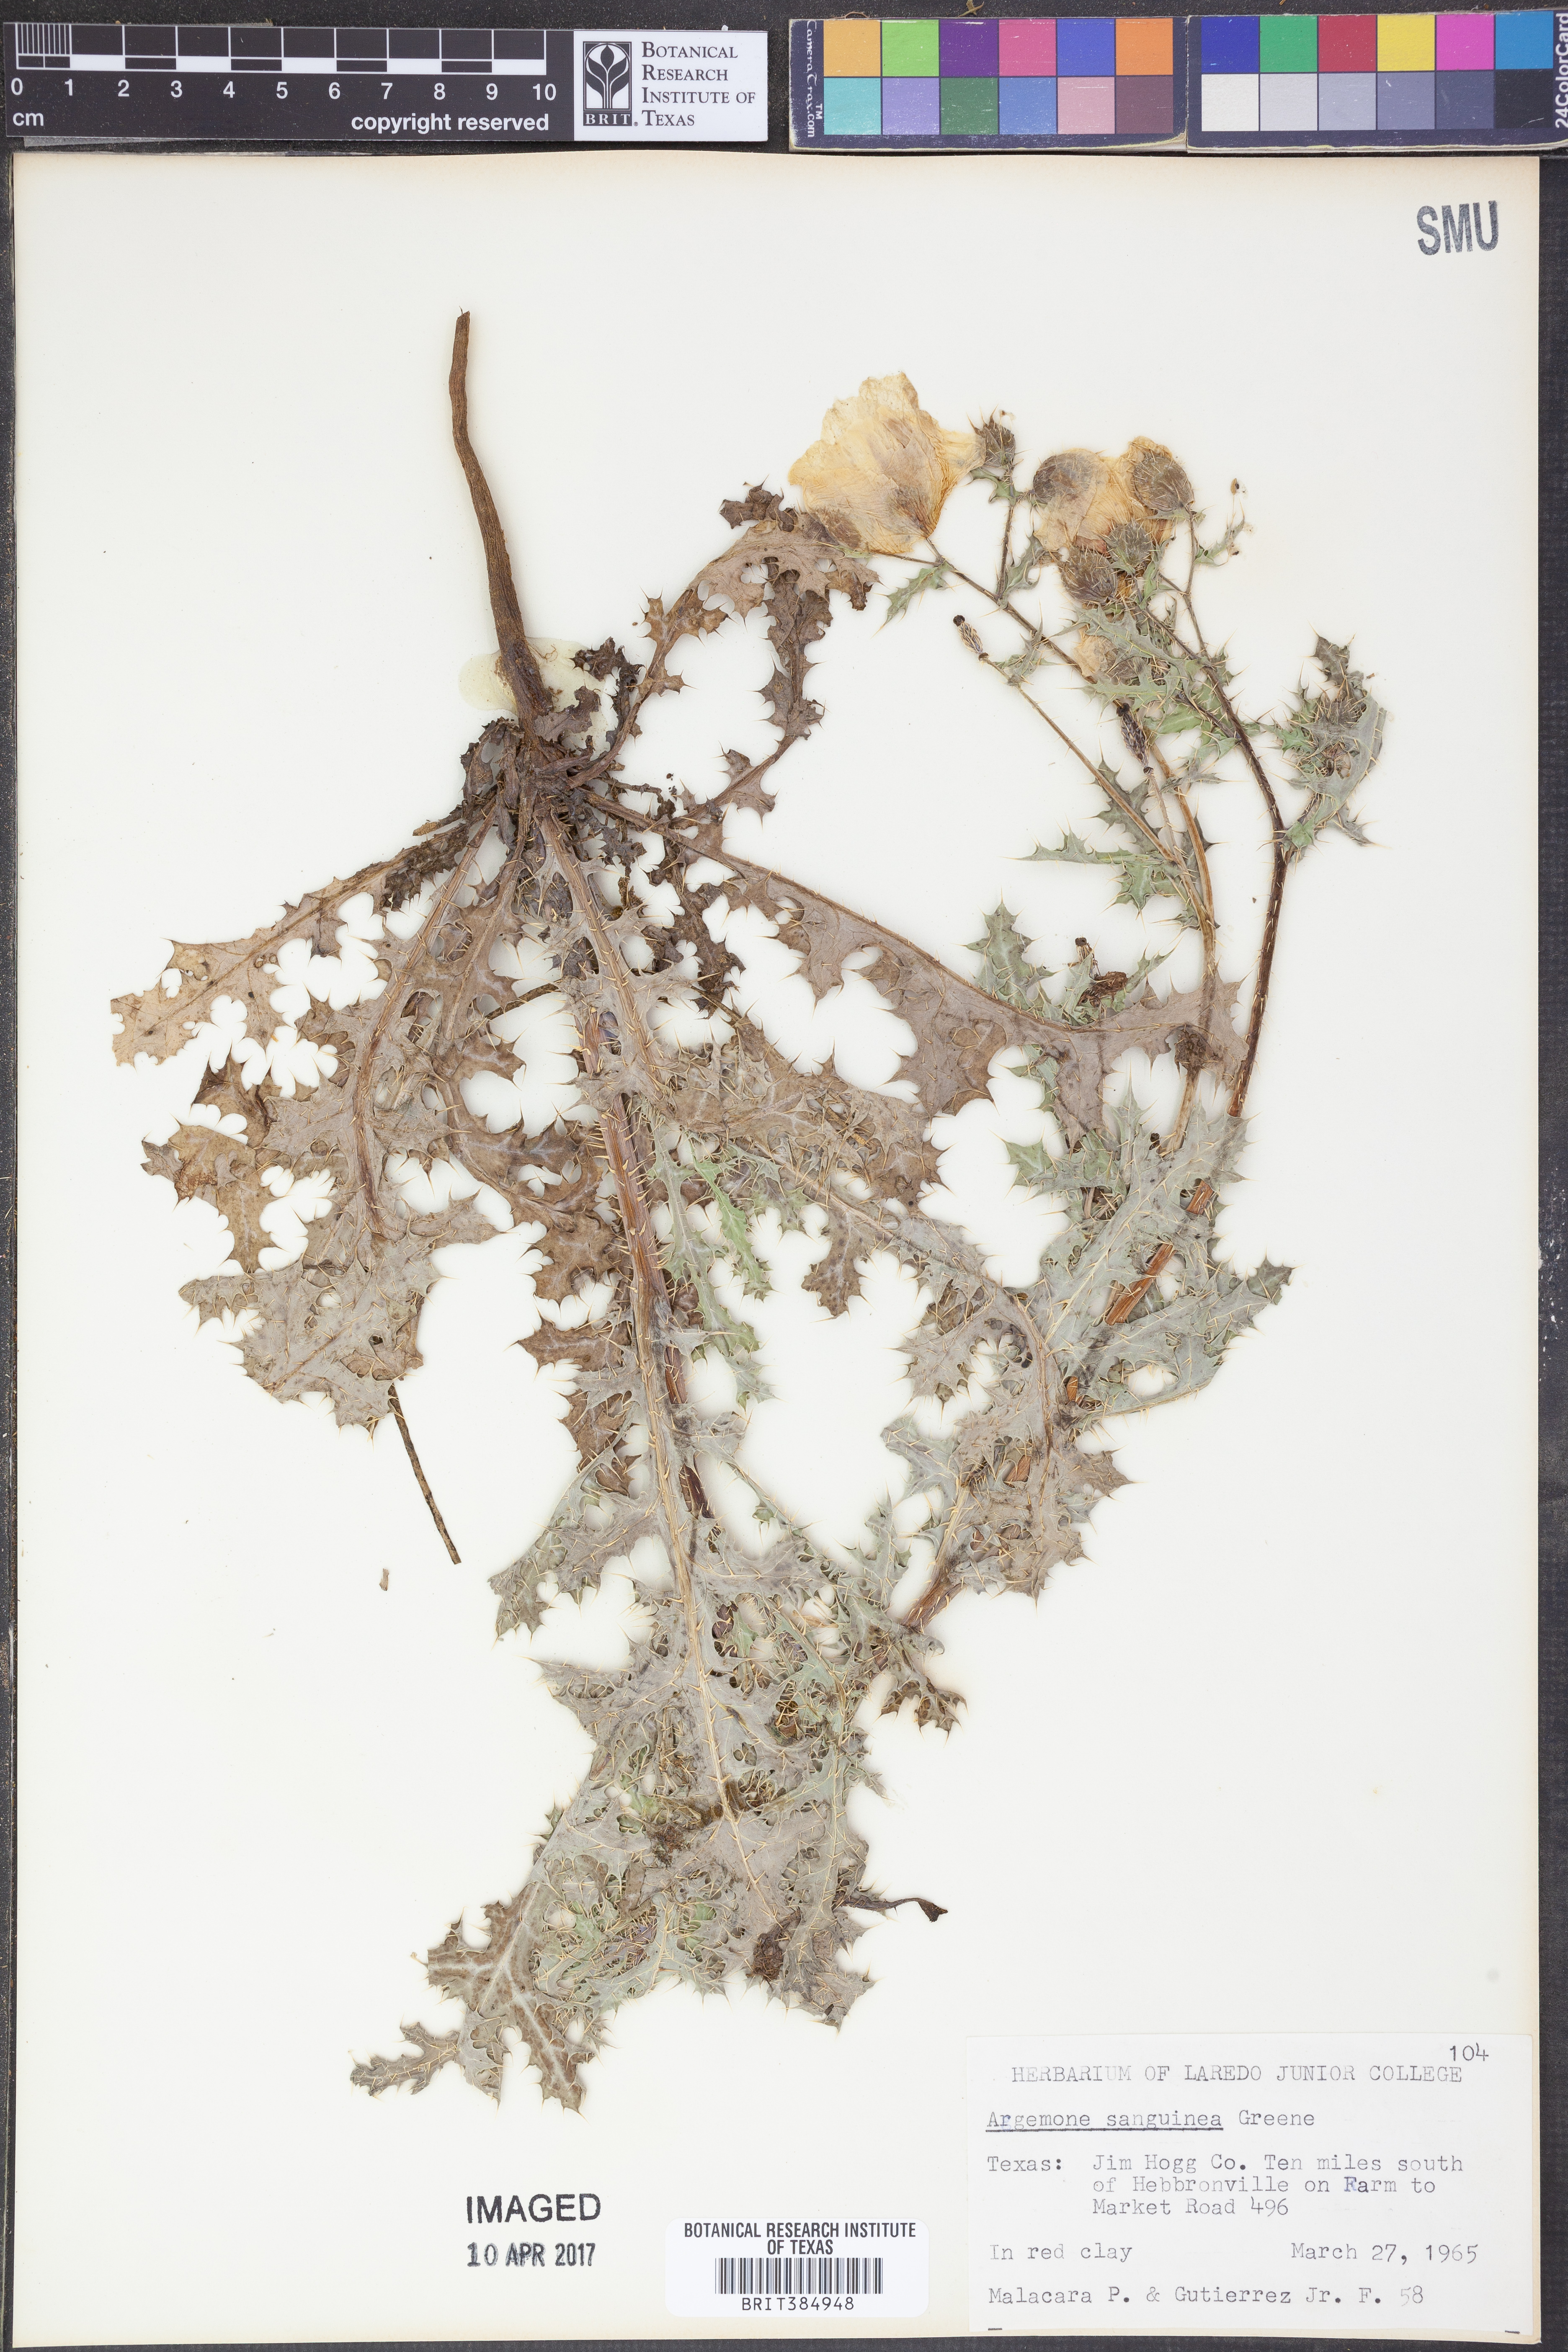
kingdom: Plantae
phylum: Tracheophyta
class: Magnoliopsida
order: Ranunculales
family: Papaveraceae
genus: Argemone
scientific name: Argemone sanguinea
